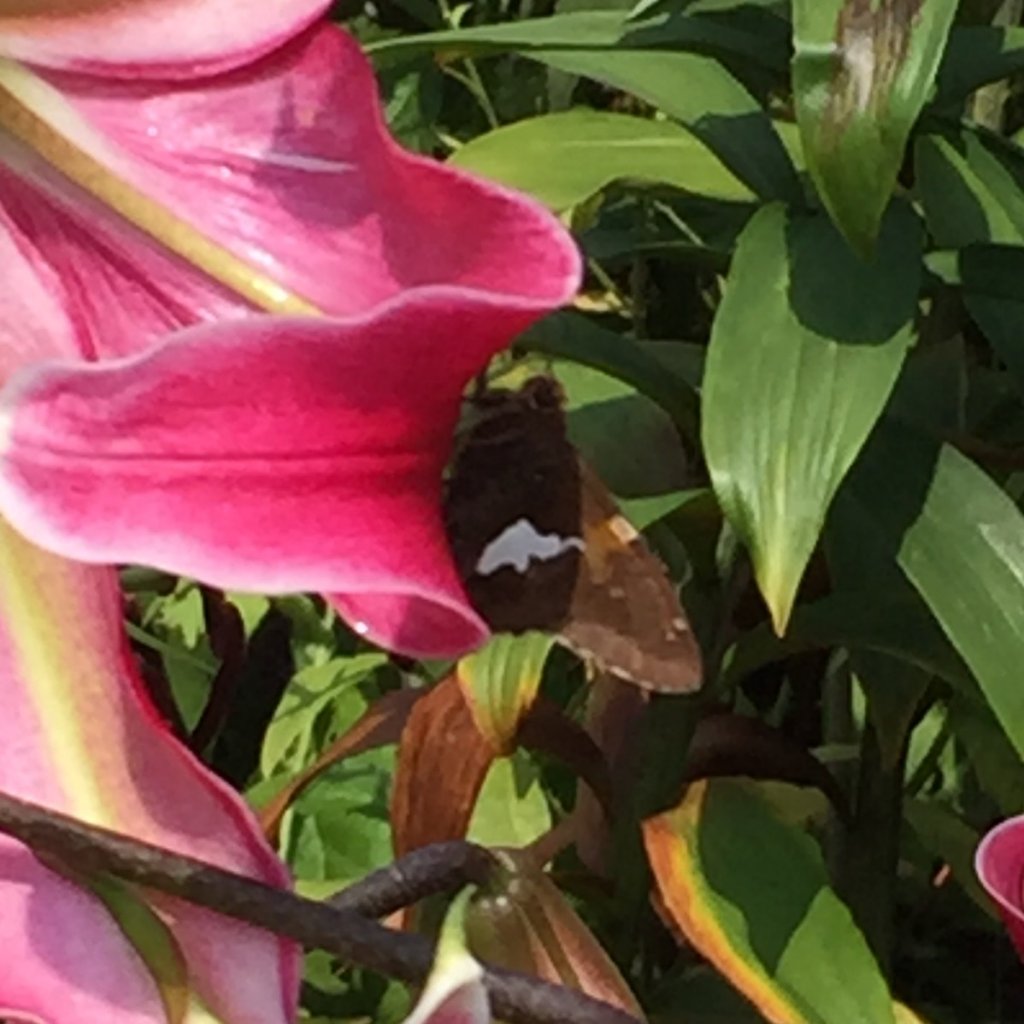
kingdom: Animalia
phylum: Arthropoda
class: Insecta
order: Lepidoptera
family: Hesperiidae
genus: Epargyreus
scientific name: Epargyreus clarus
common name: Silver-spotted Skipper
